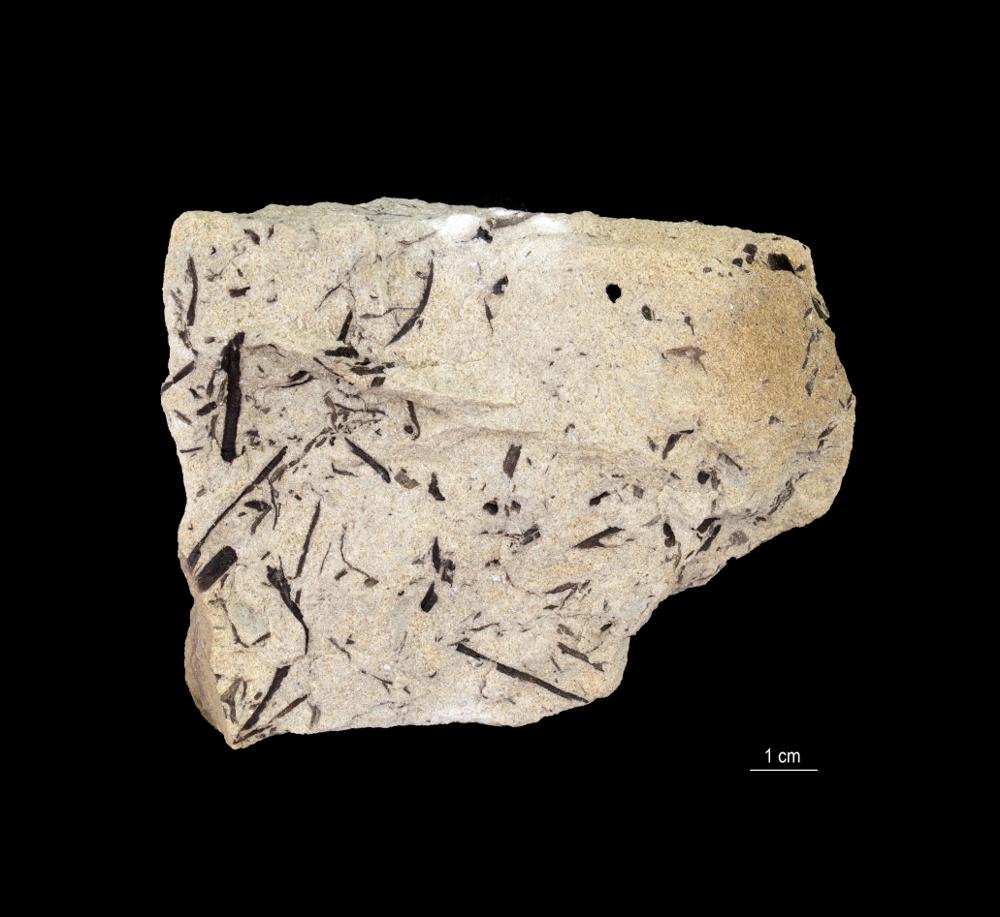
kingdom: Plantae
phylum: Tracheophyta
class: Lycopodiopsida
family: Asteroxylaceae
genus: Asteroxylon
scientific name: Asteroxylon
